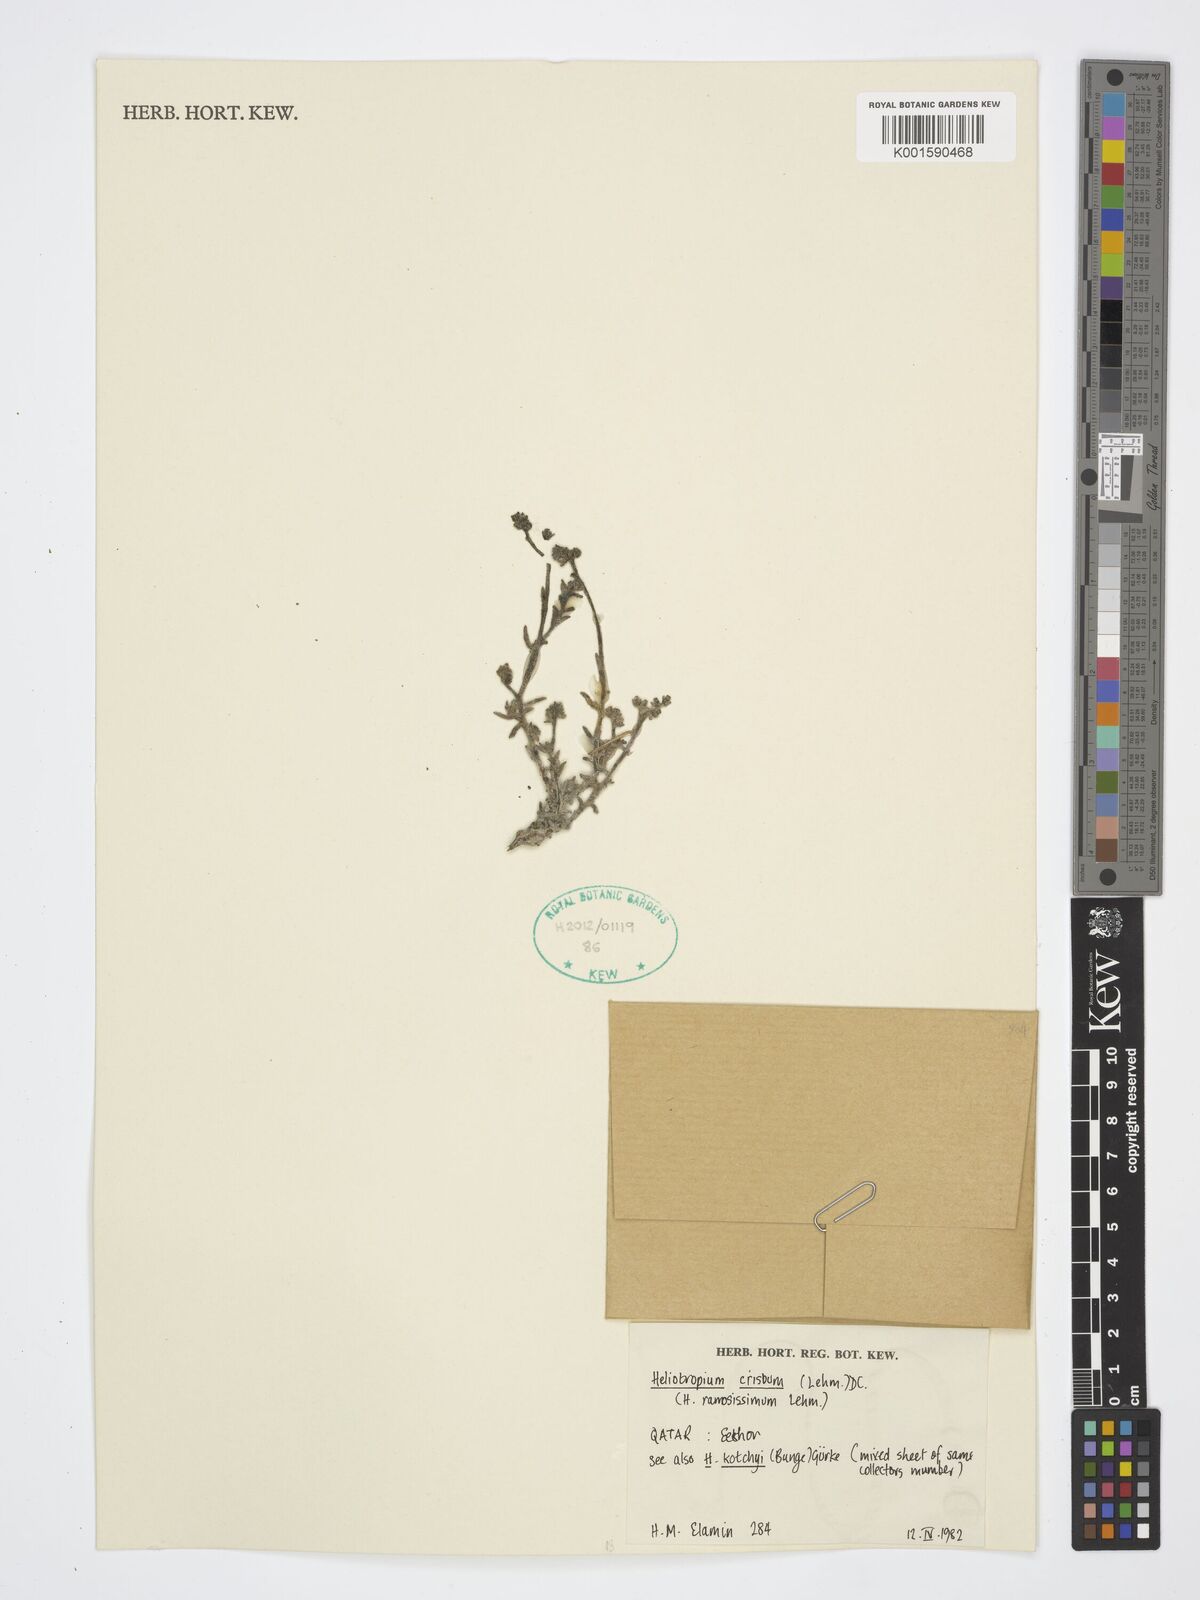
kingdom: Plantae
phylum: Tracheophyta
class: Magnoliopsida
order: Boraginales
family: Heliotropiaceae
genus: Heliotropium
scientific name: Heliotropium crispum
